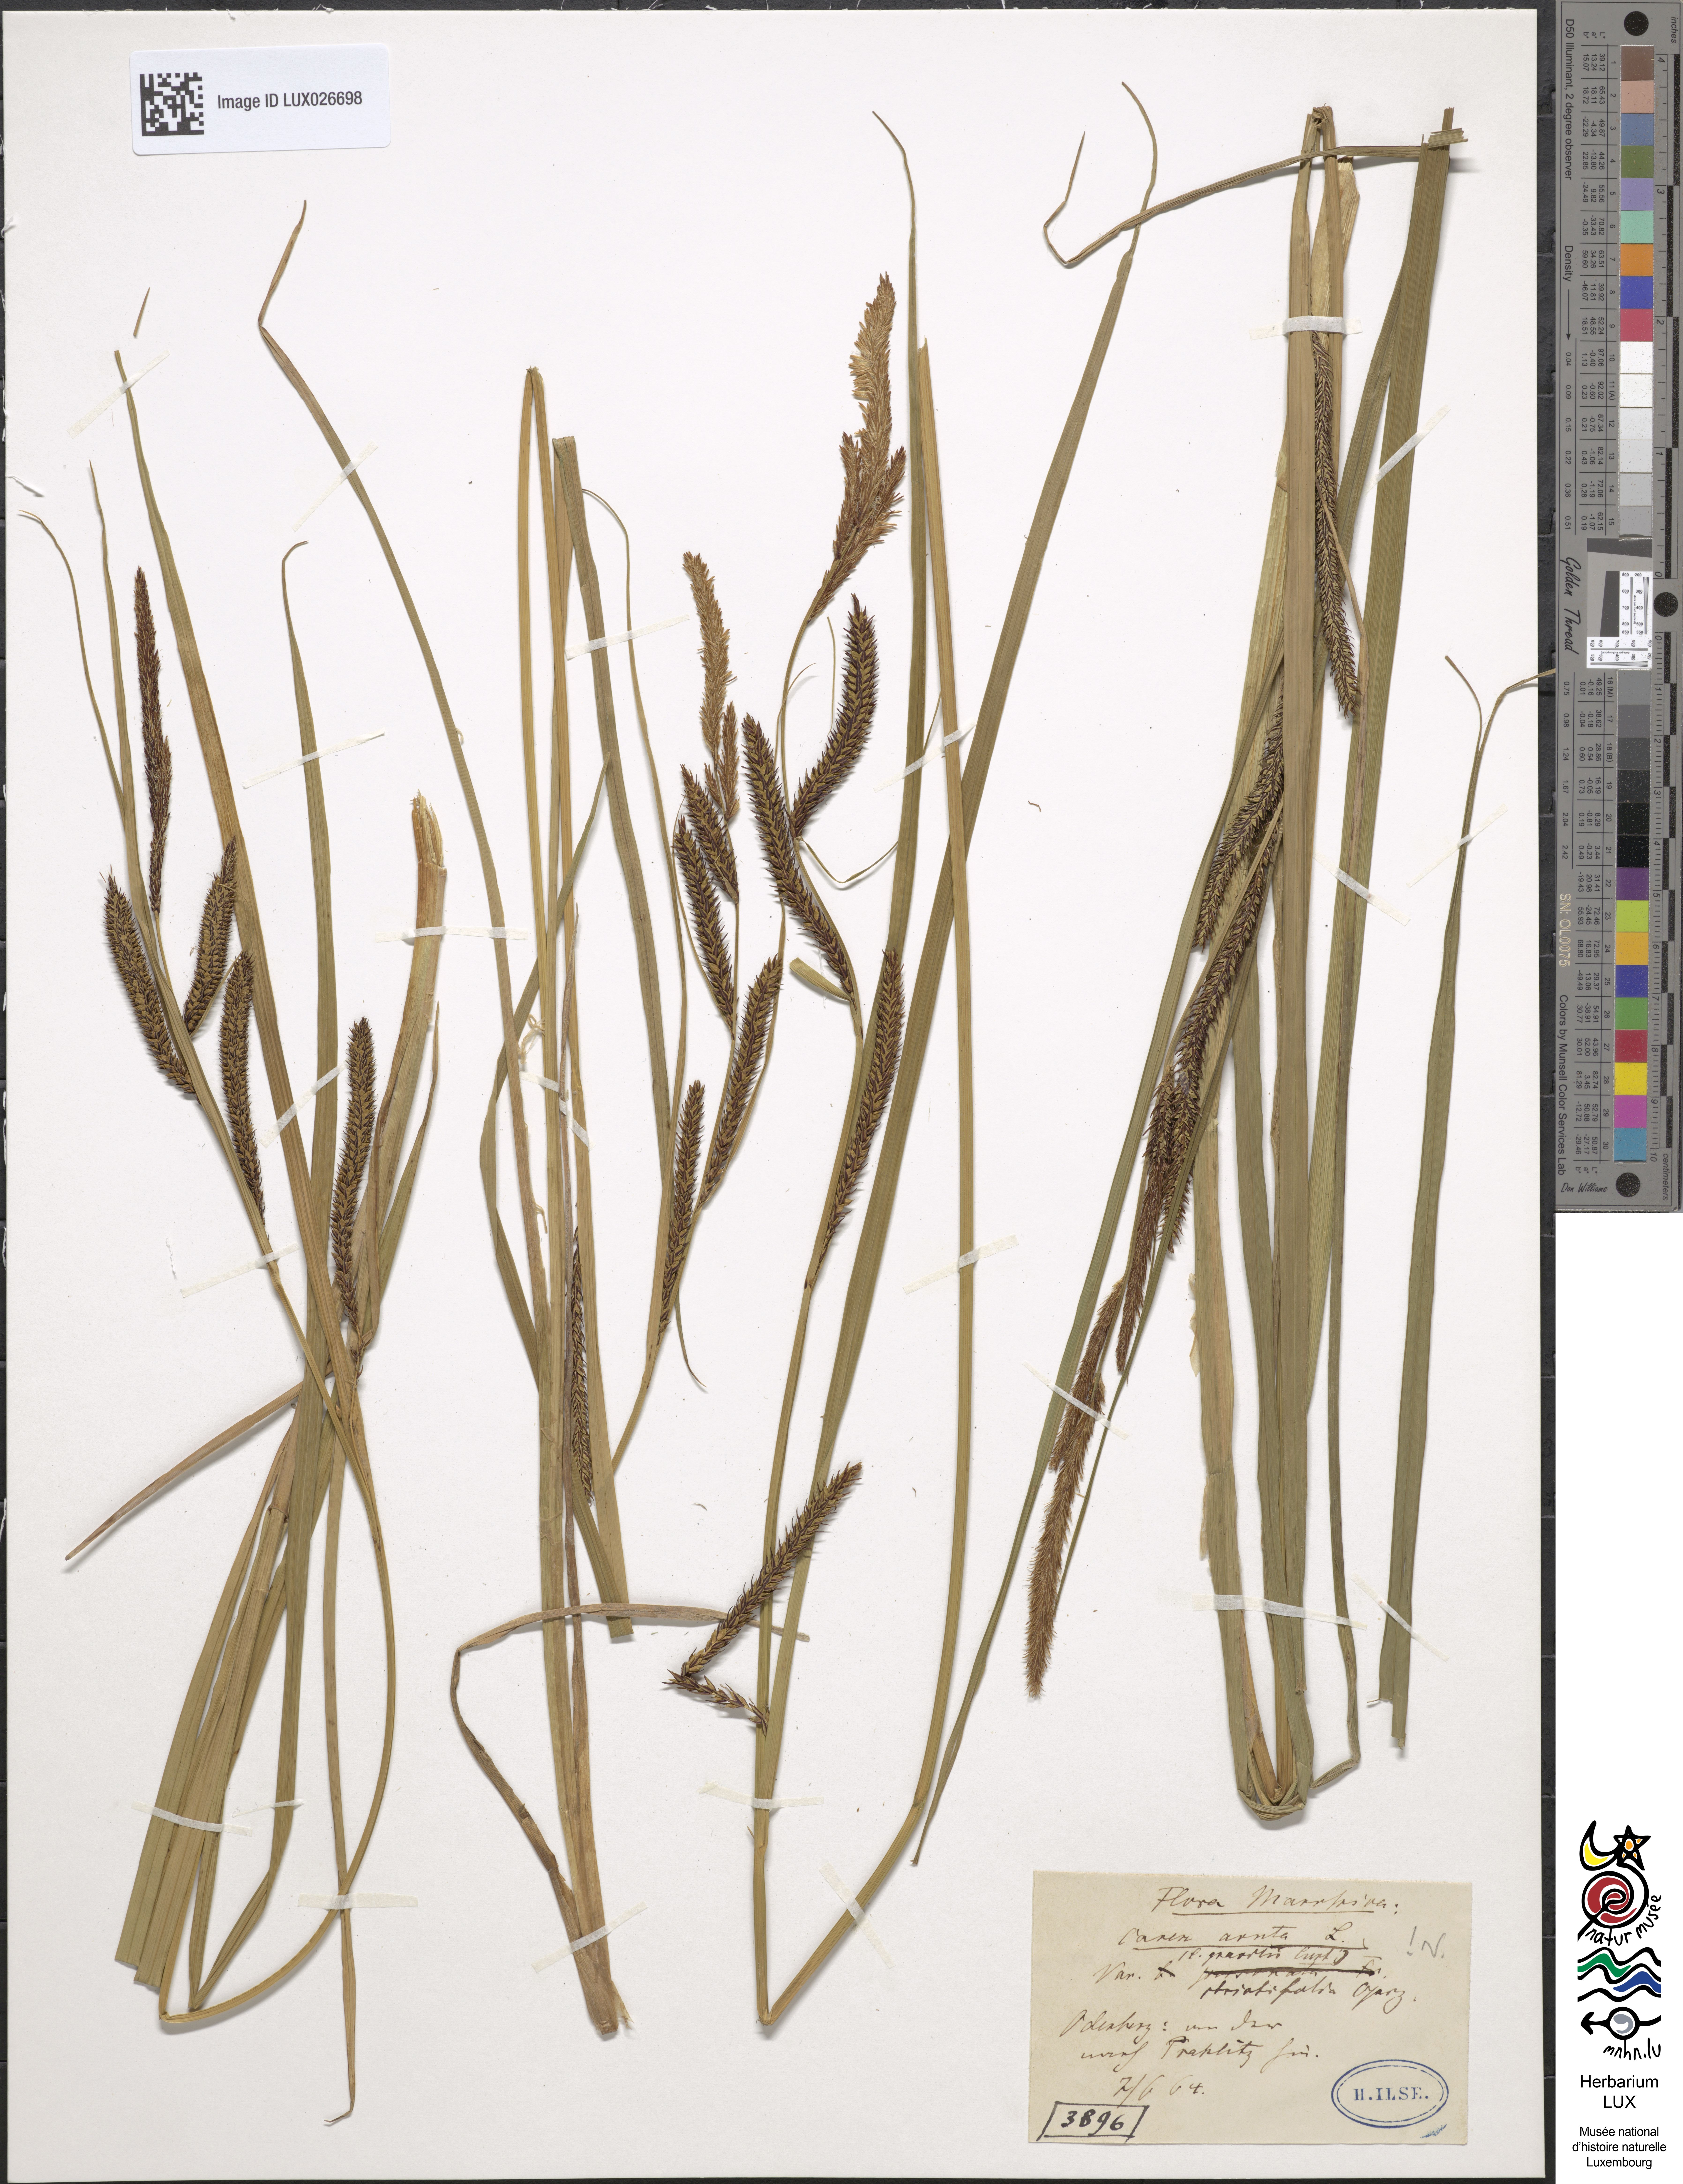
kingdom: Plantae
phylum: Tracheophyta
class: Liliopsida
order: Poales
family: Cyperaceae
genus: Carex
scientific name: Carex acuta
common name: Slender tufted-sedge
